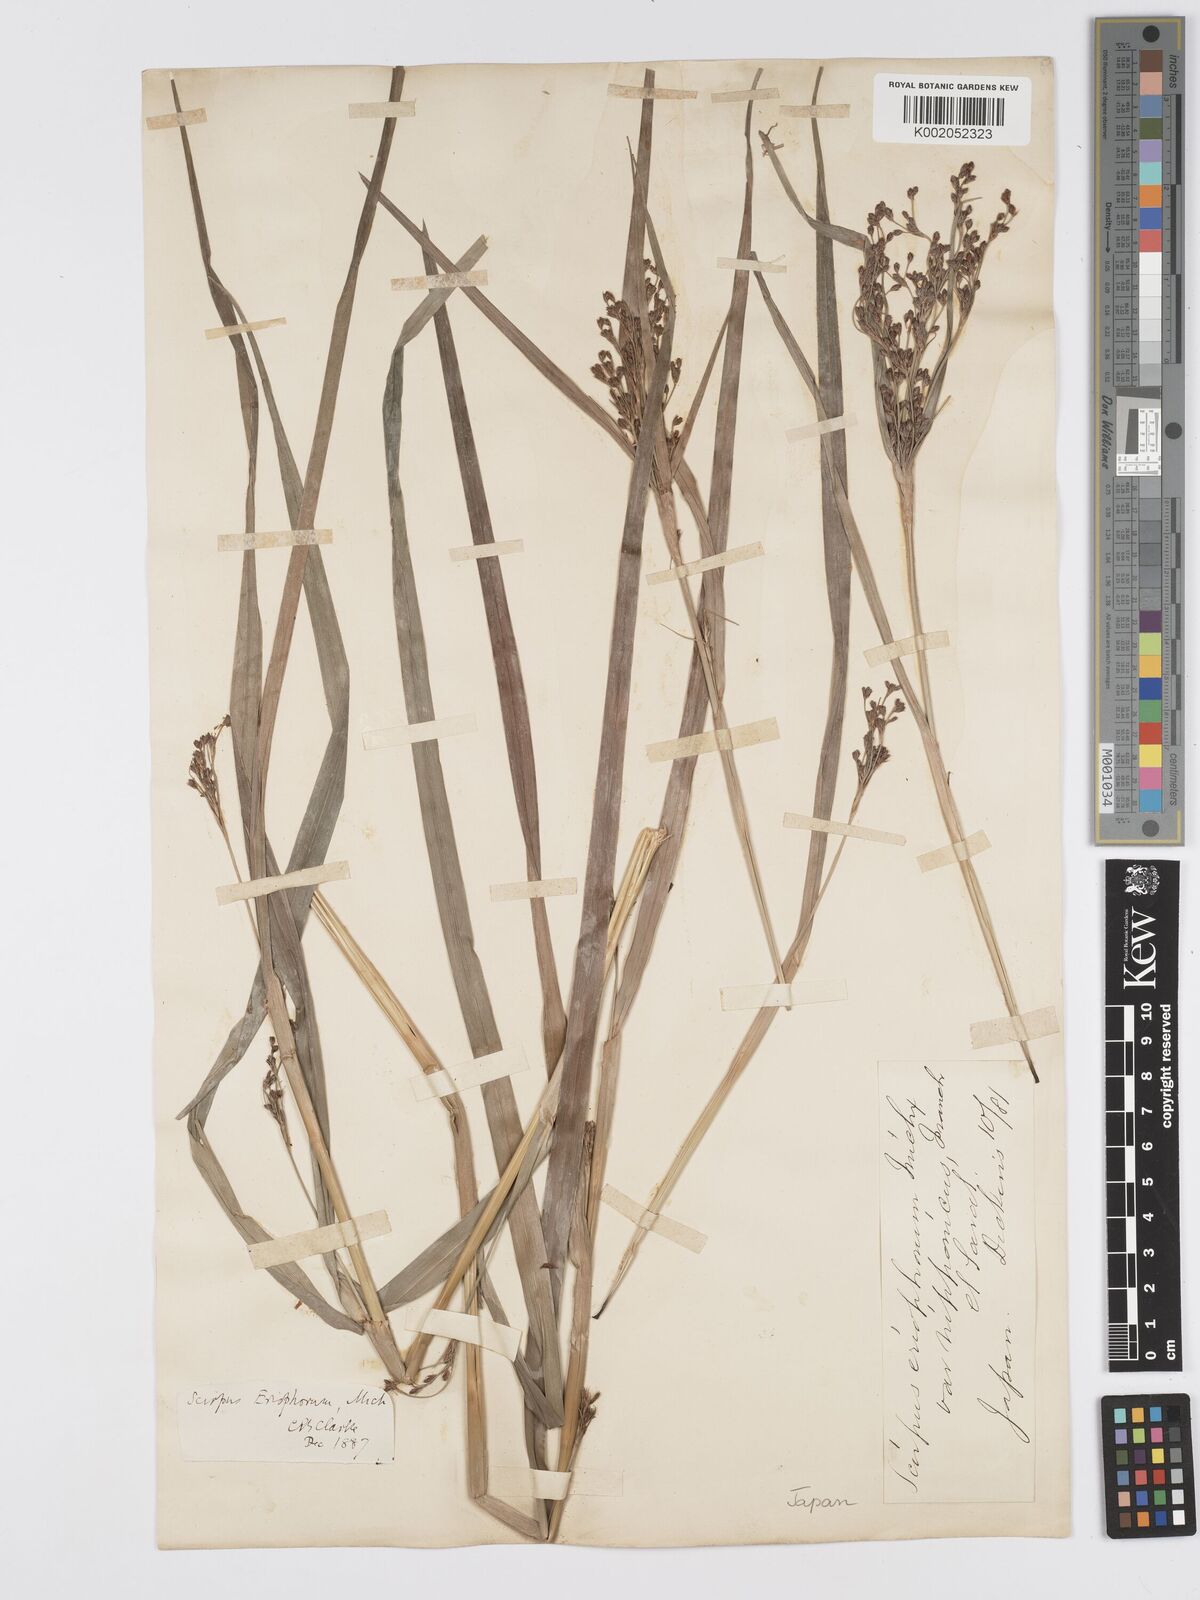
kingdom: Plantae
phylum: Tracheophyta
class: Liliopsida
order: Poales
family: Cyperaceae
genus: Scirpus
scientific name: Scirpus cyperinus
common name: Black-sheathed bulrush
